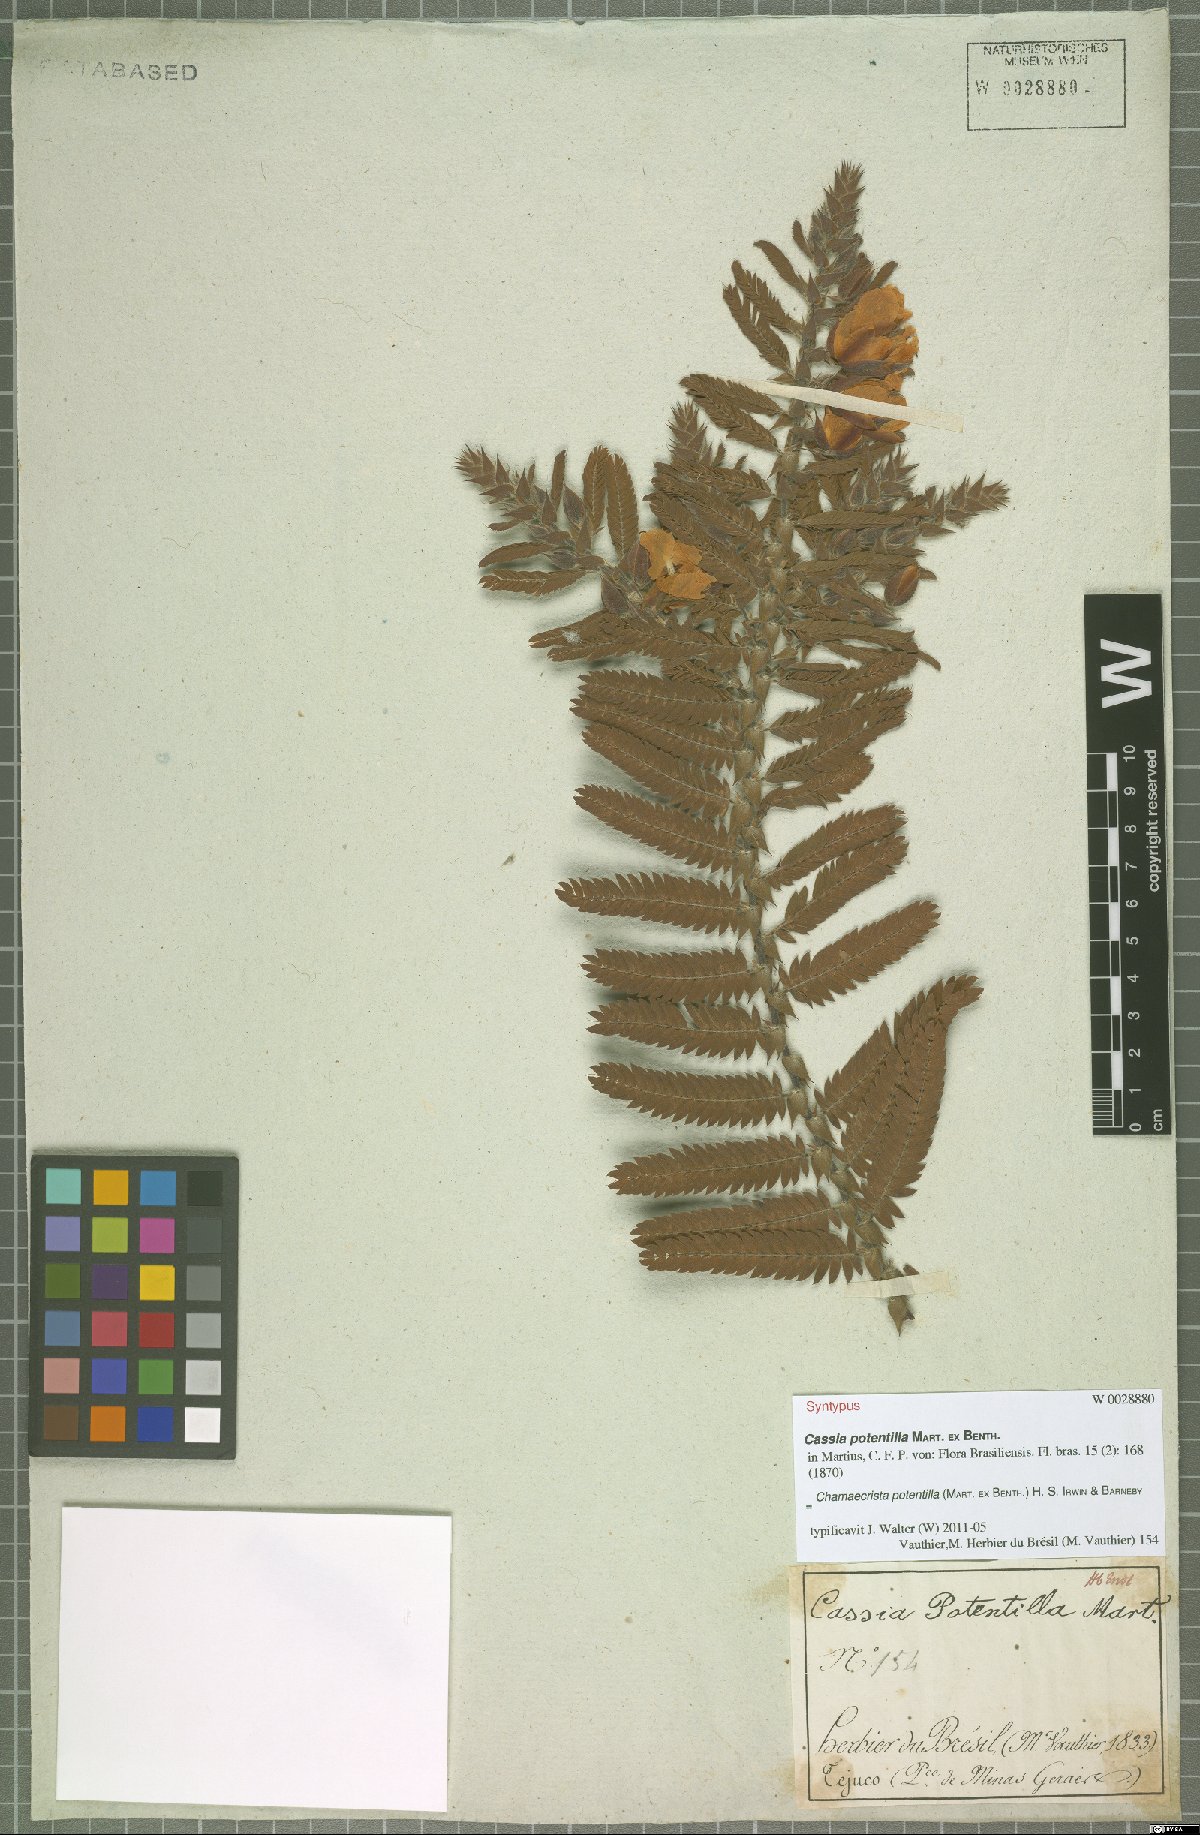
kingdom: Plantae
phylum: Tracheophyta
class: Magnoliopsida
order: Fabales
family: Fabaceae
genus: Chamaecrista
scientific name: Chamaecrista potentilla
